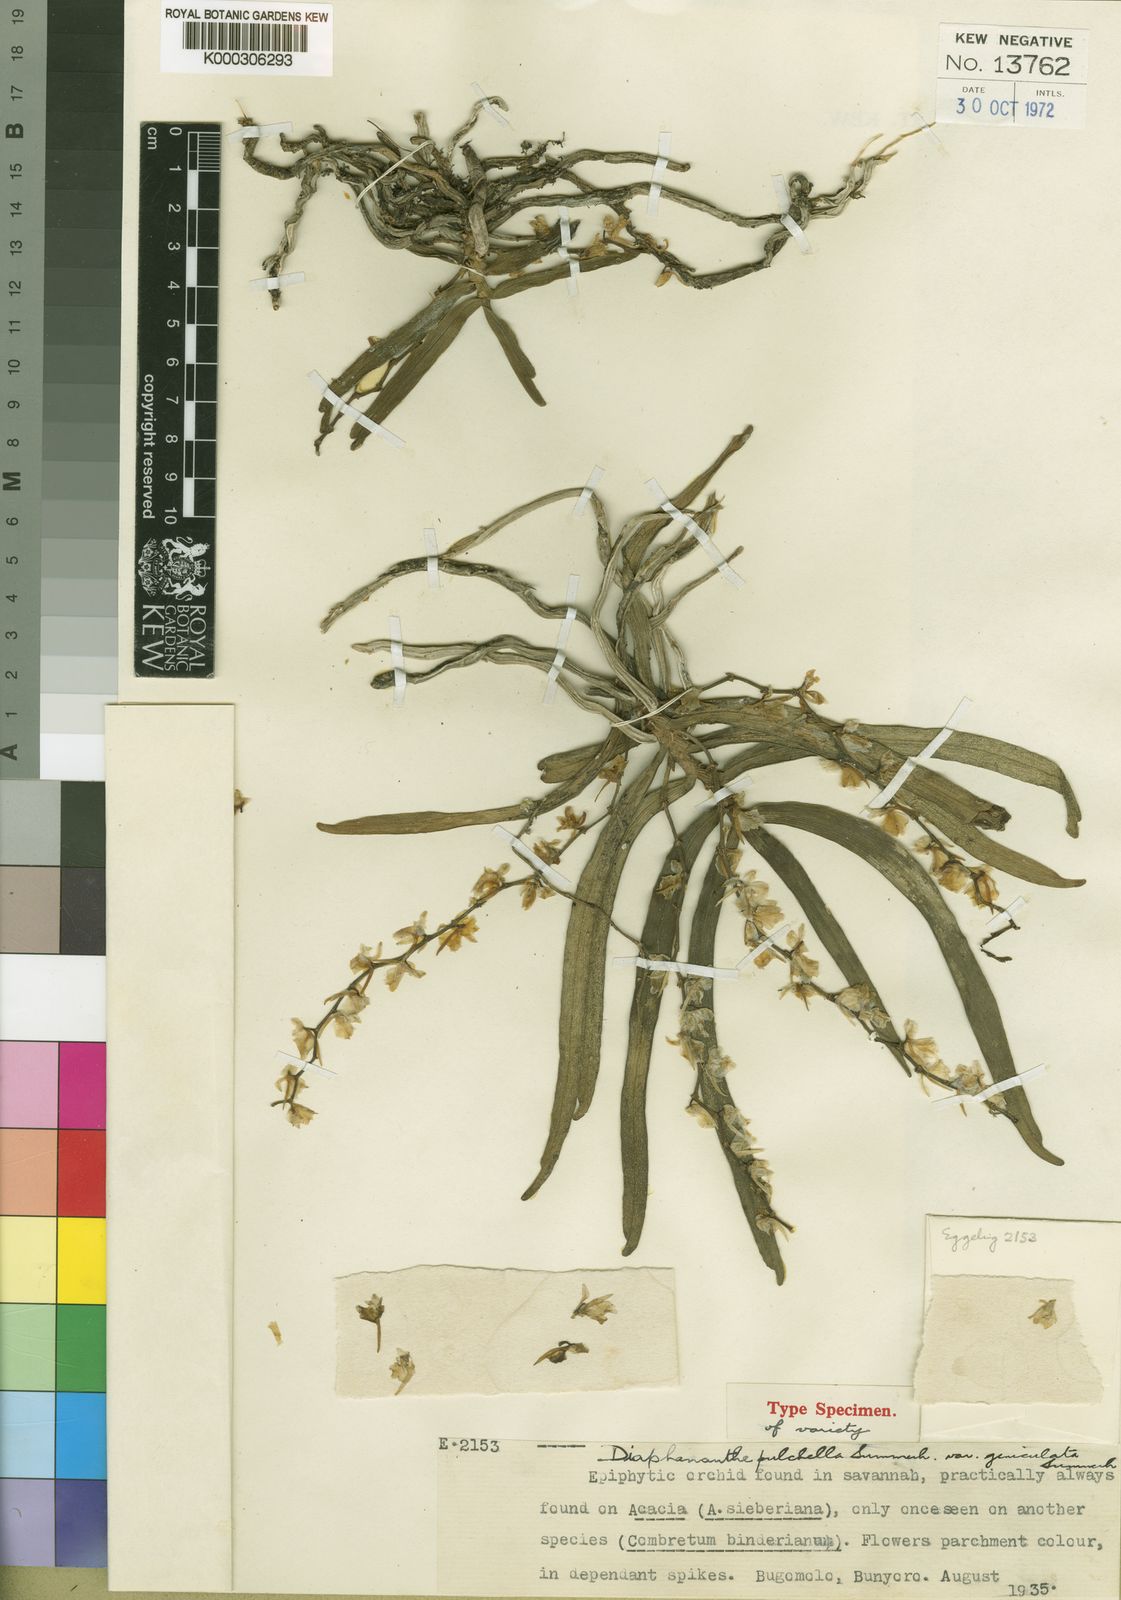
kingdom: Plantae
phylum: Tracheophyta
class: Liliopsida
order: Asparagales
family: Orchidaceae
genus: Rhipidoglossum
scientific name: Rhipidoglossum pulchellum
